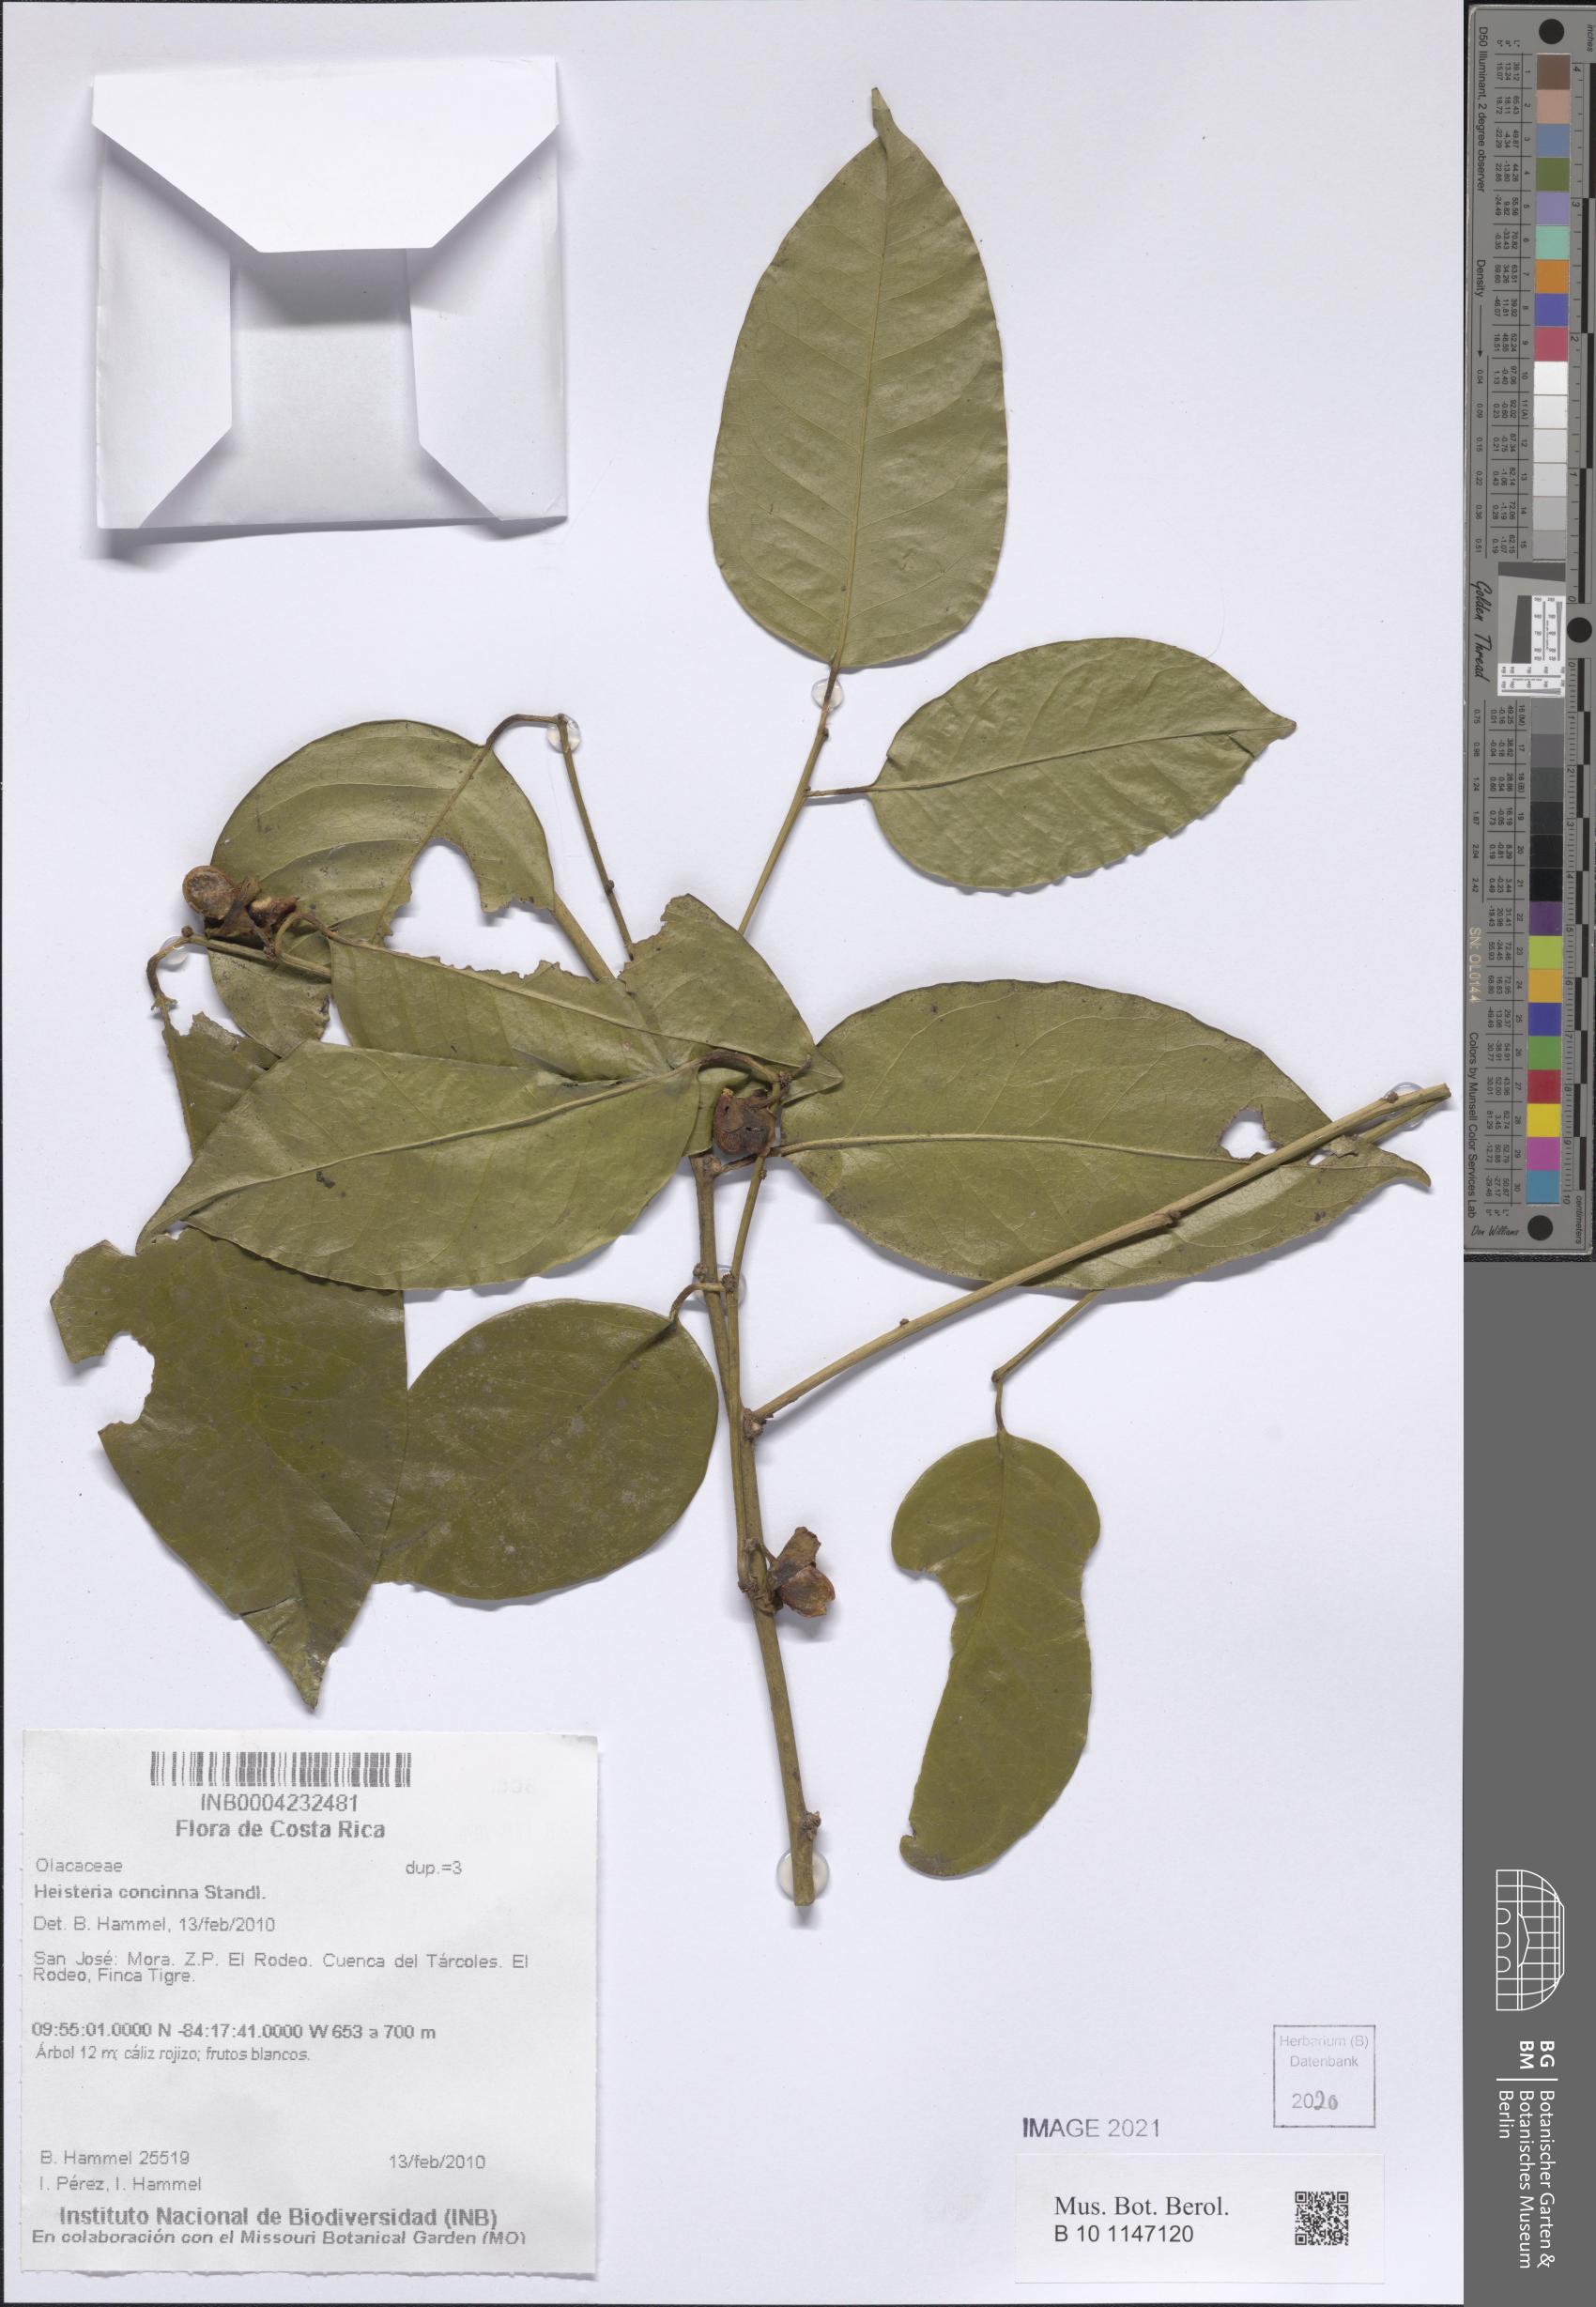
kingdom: Plantae
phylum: Tracheophyta
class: Magnoliopsida
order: Santalales
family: Erythropalaceae
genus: Heisteria
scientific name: Heisteria concinna
